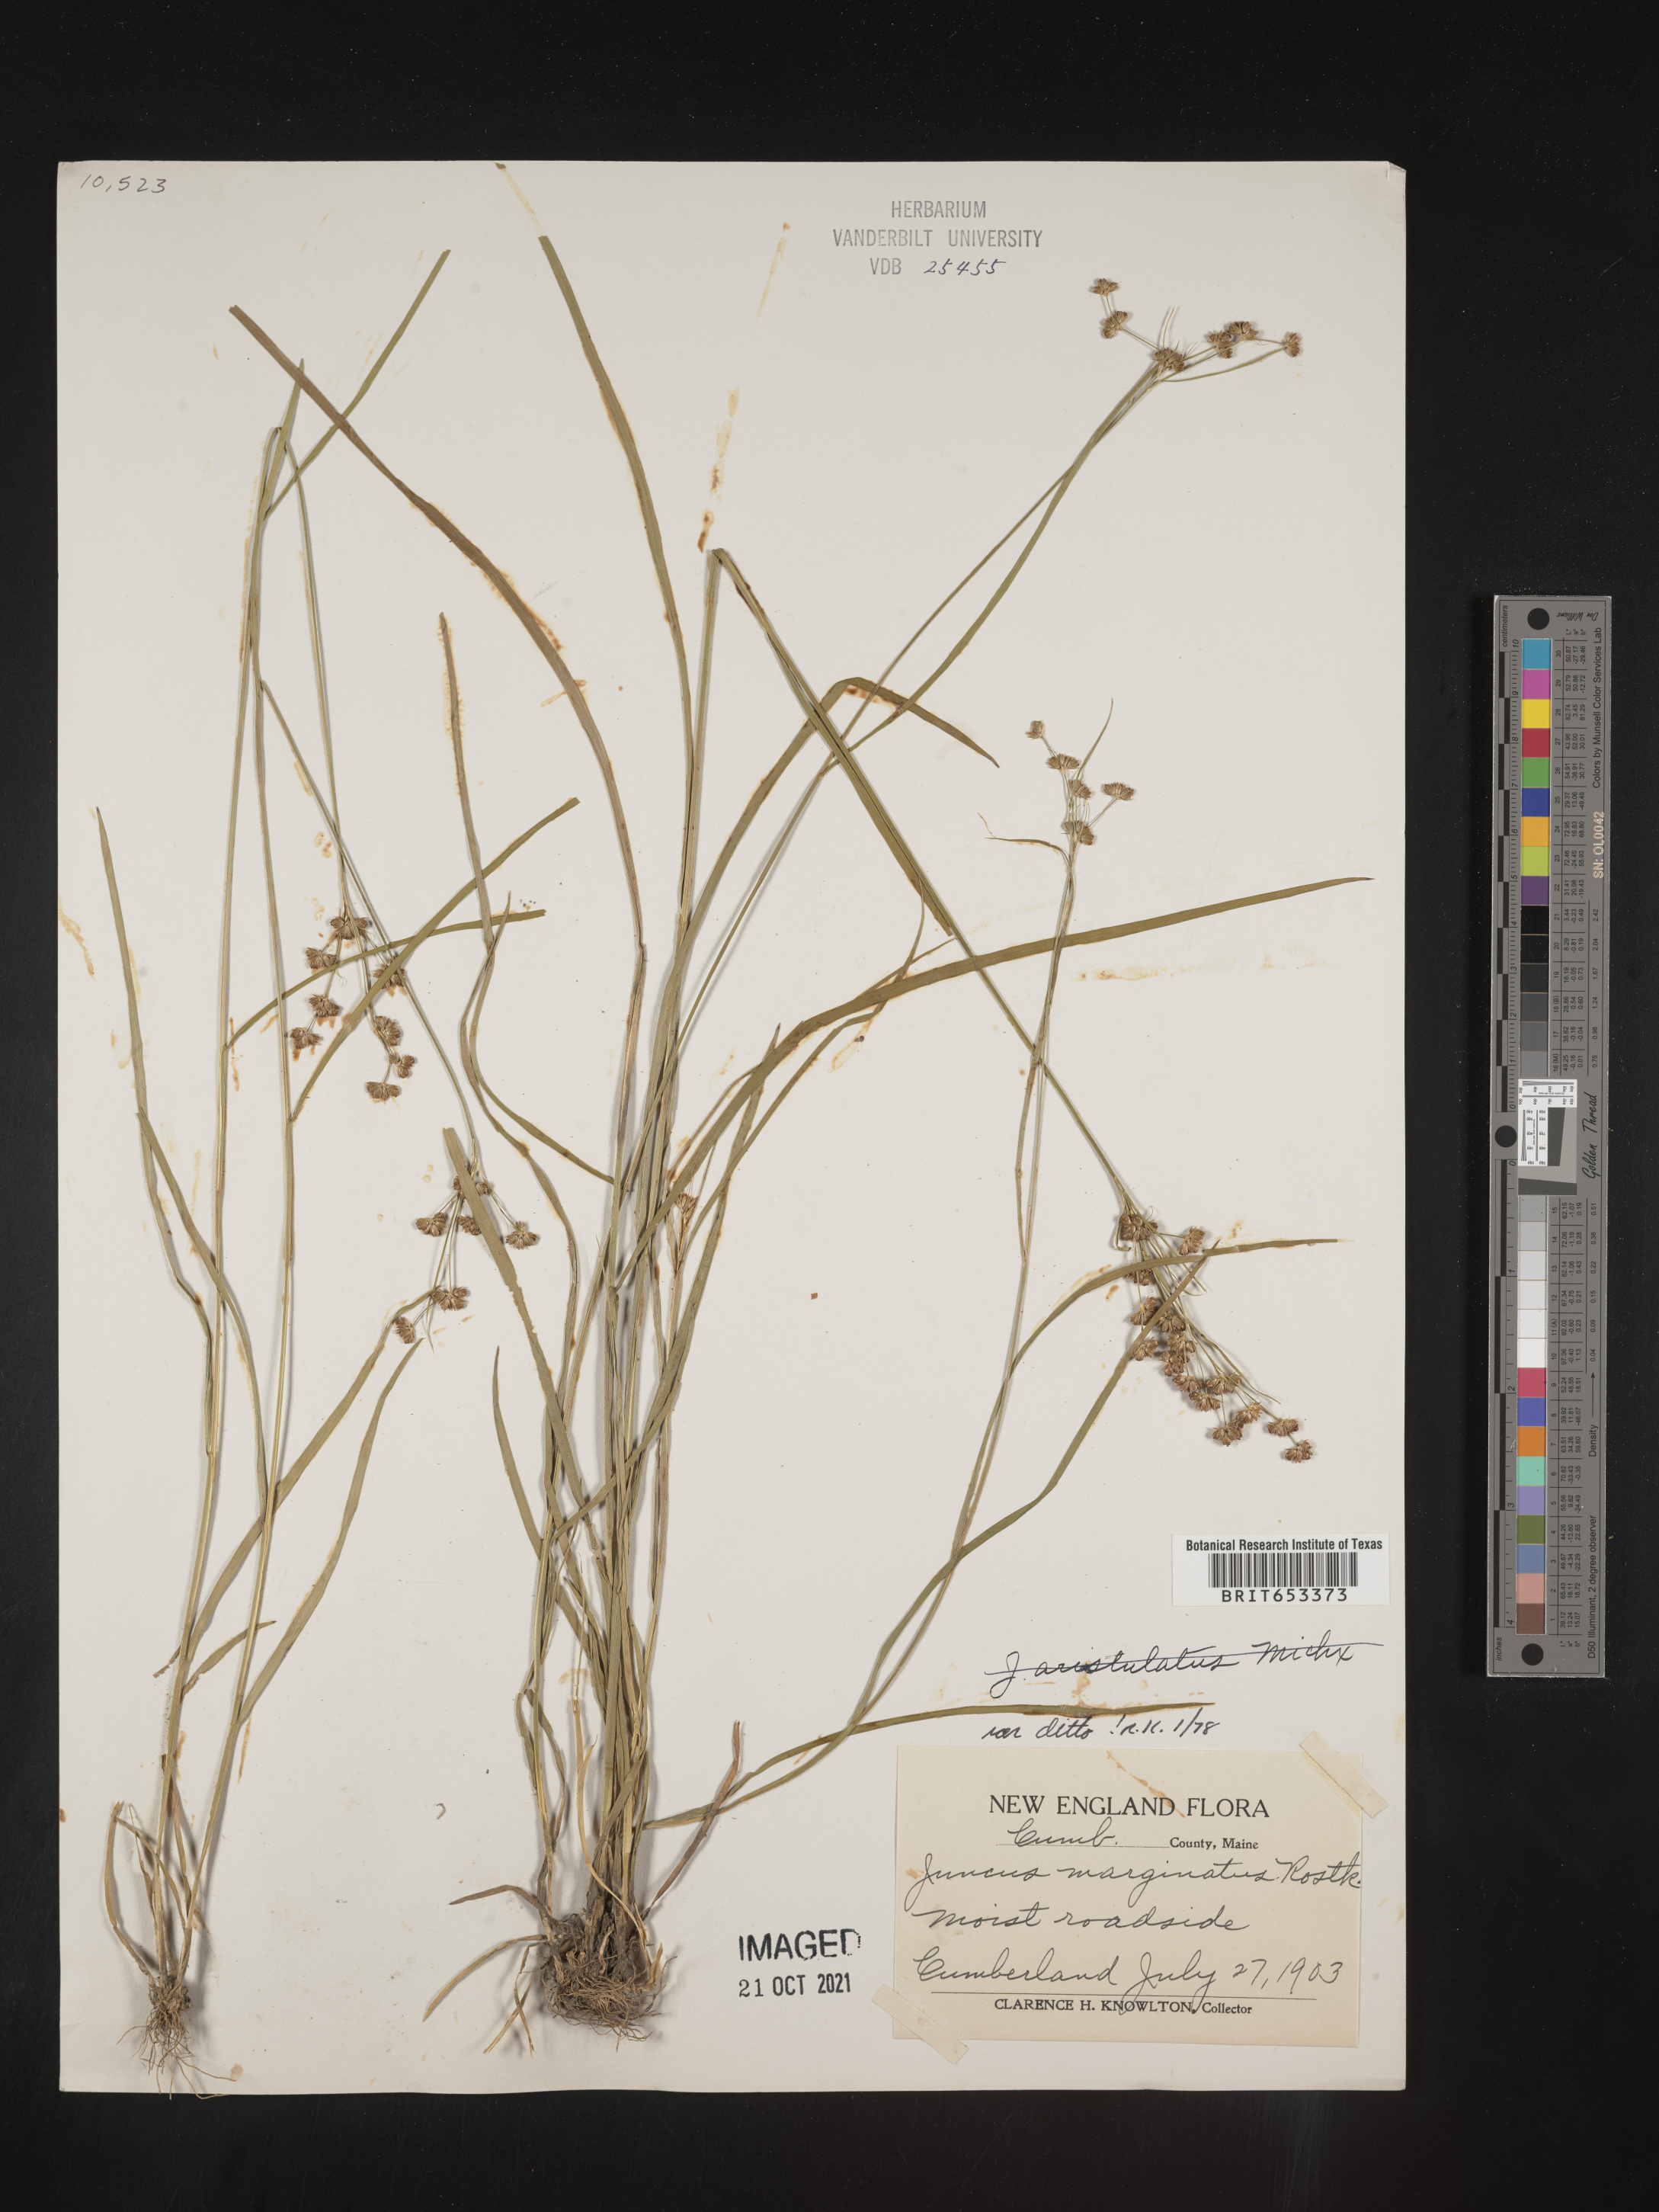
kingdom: Plantae
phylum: Tracheophyta
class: Liliopsida
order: Poales
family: Juncaceae
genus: Juncus
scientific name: Juncus marginatus
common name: Grass-leaf rush
